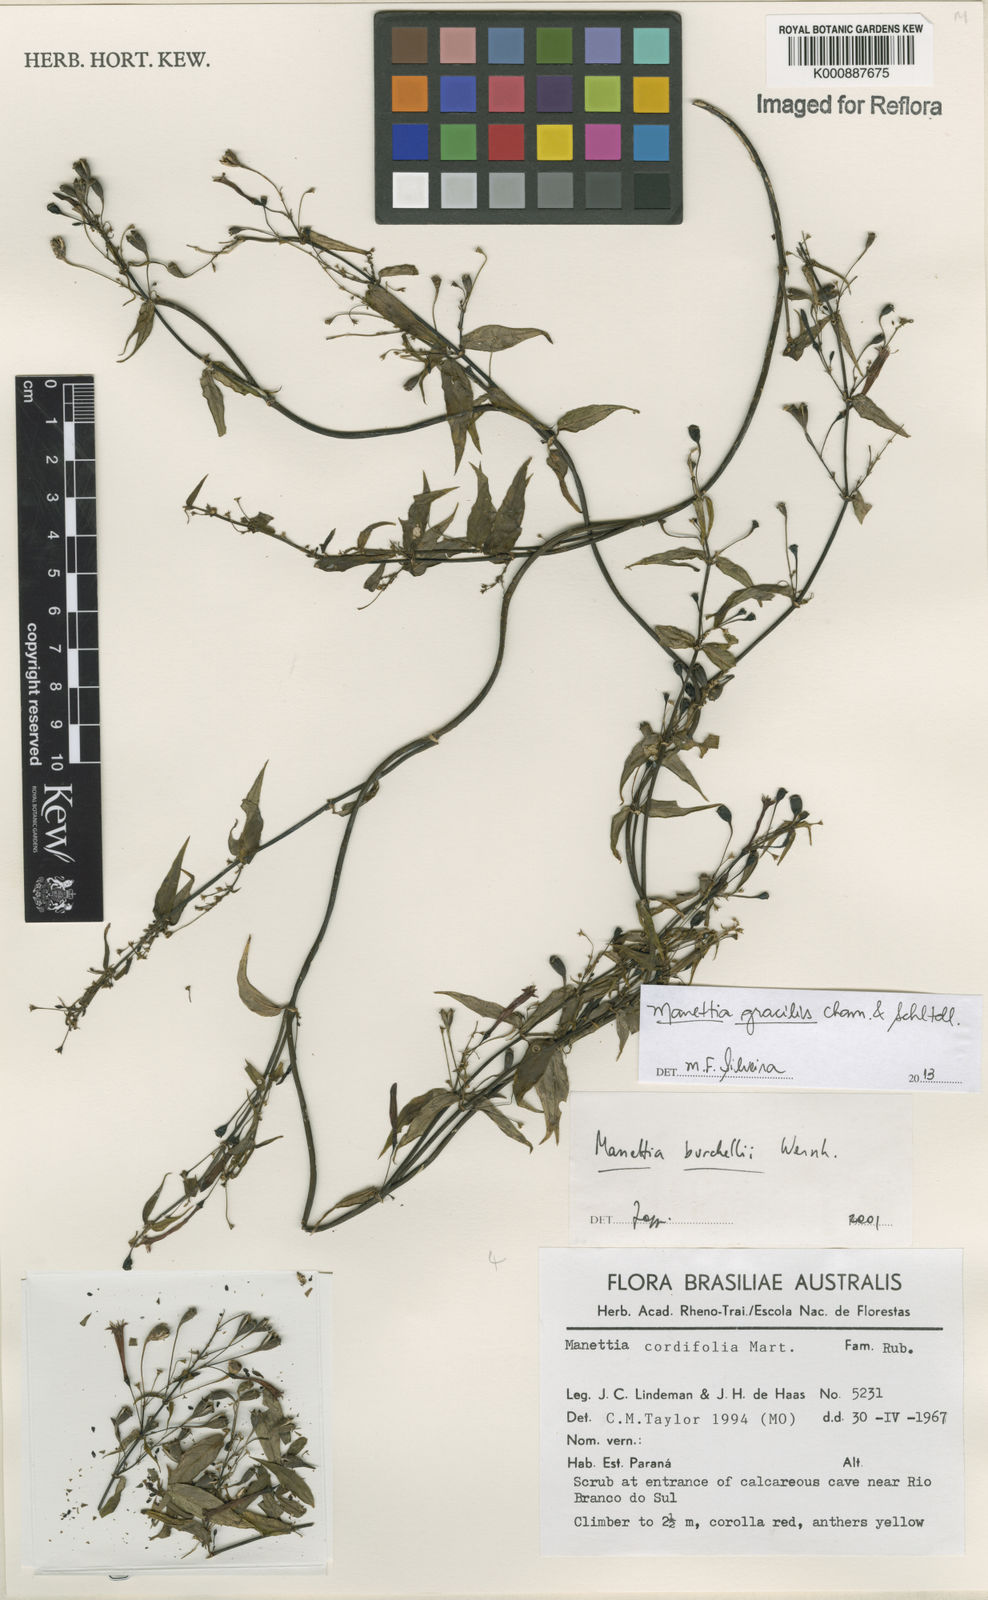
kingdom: Plantae
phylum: Tracheophyta
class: Magnoliopsida
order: Gentianales
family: Rubiaceae
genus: Manettia
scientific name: Manettia gracilis
